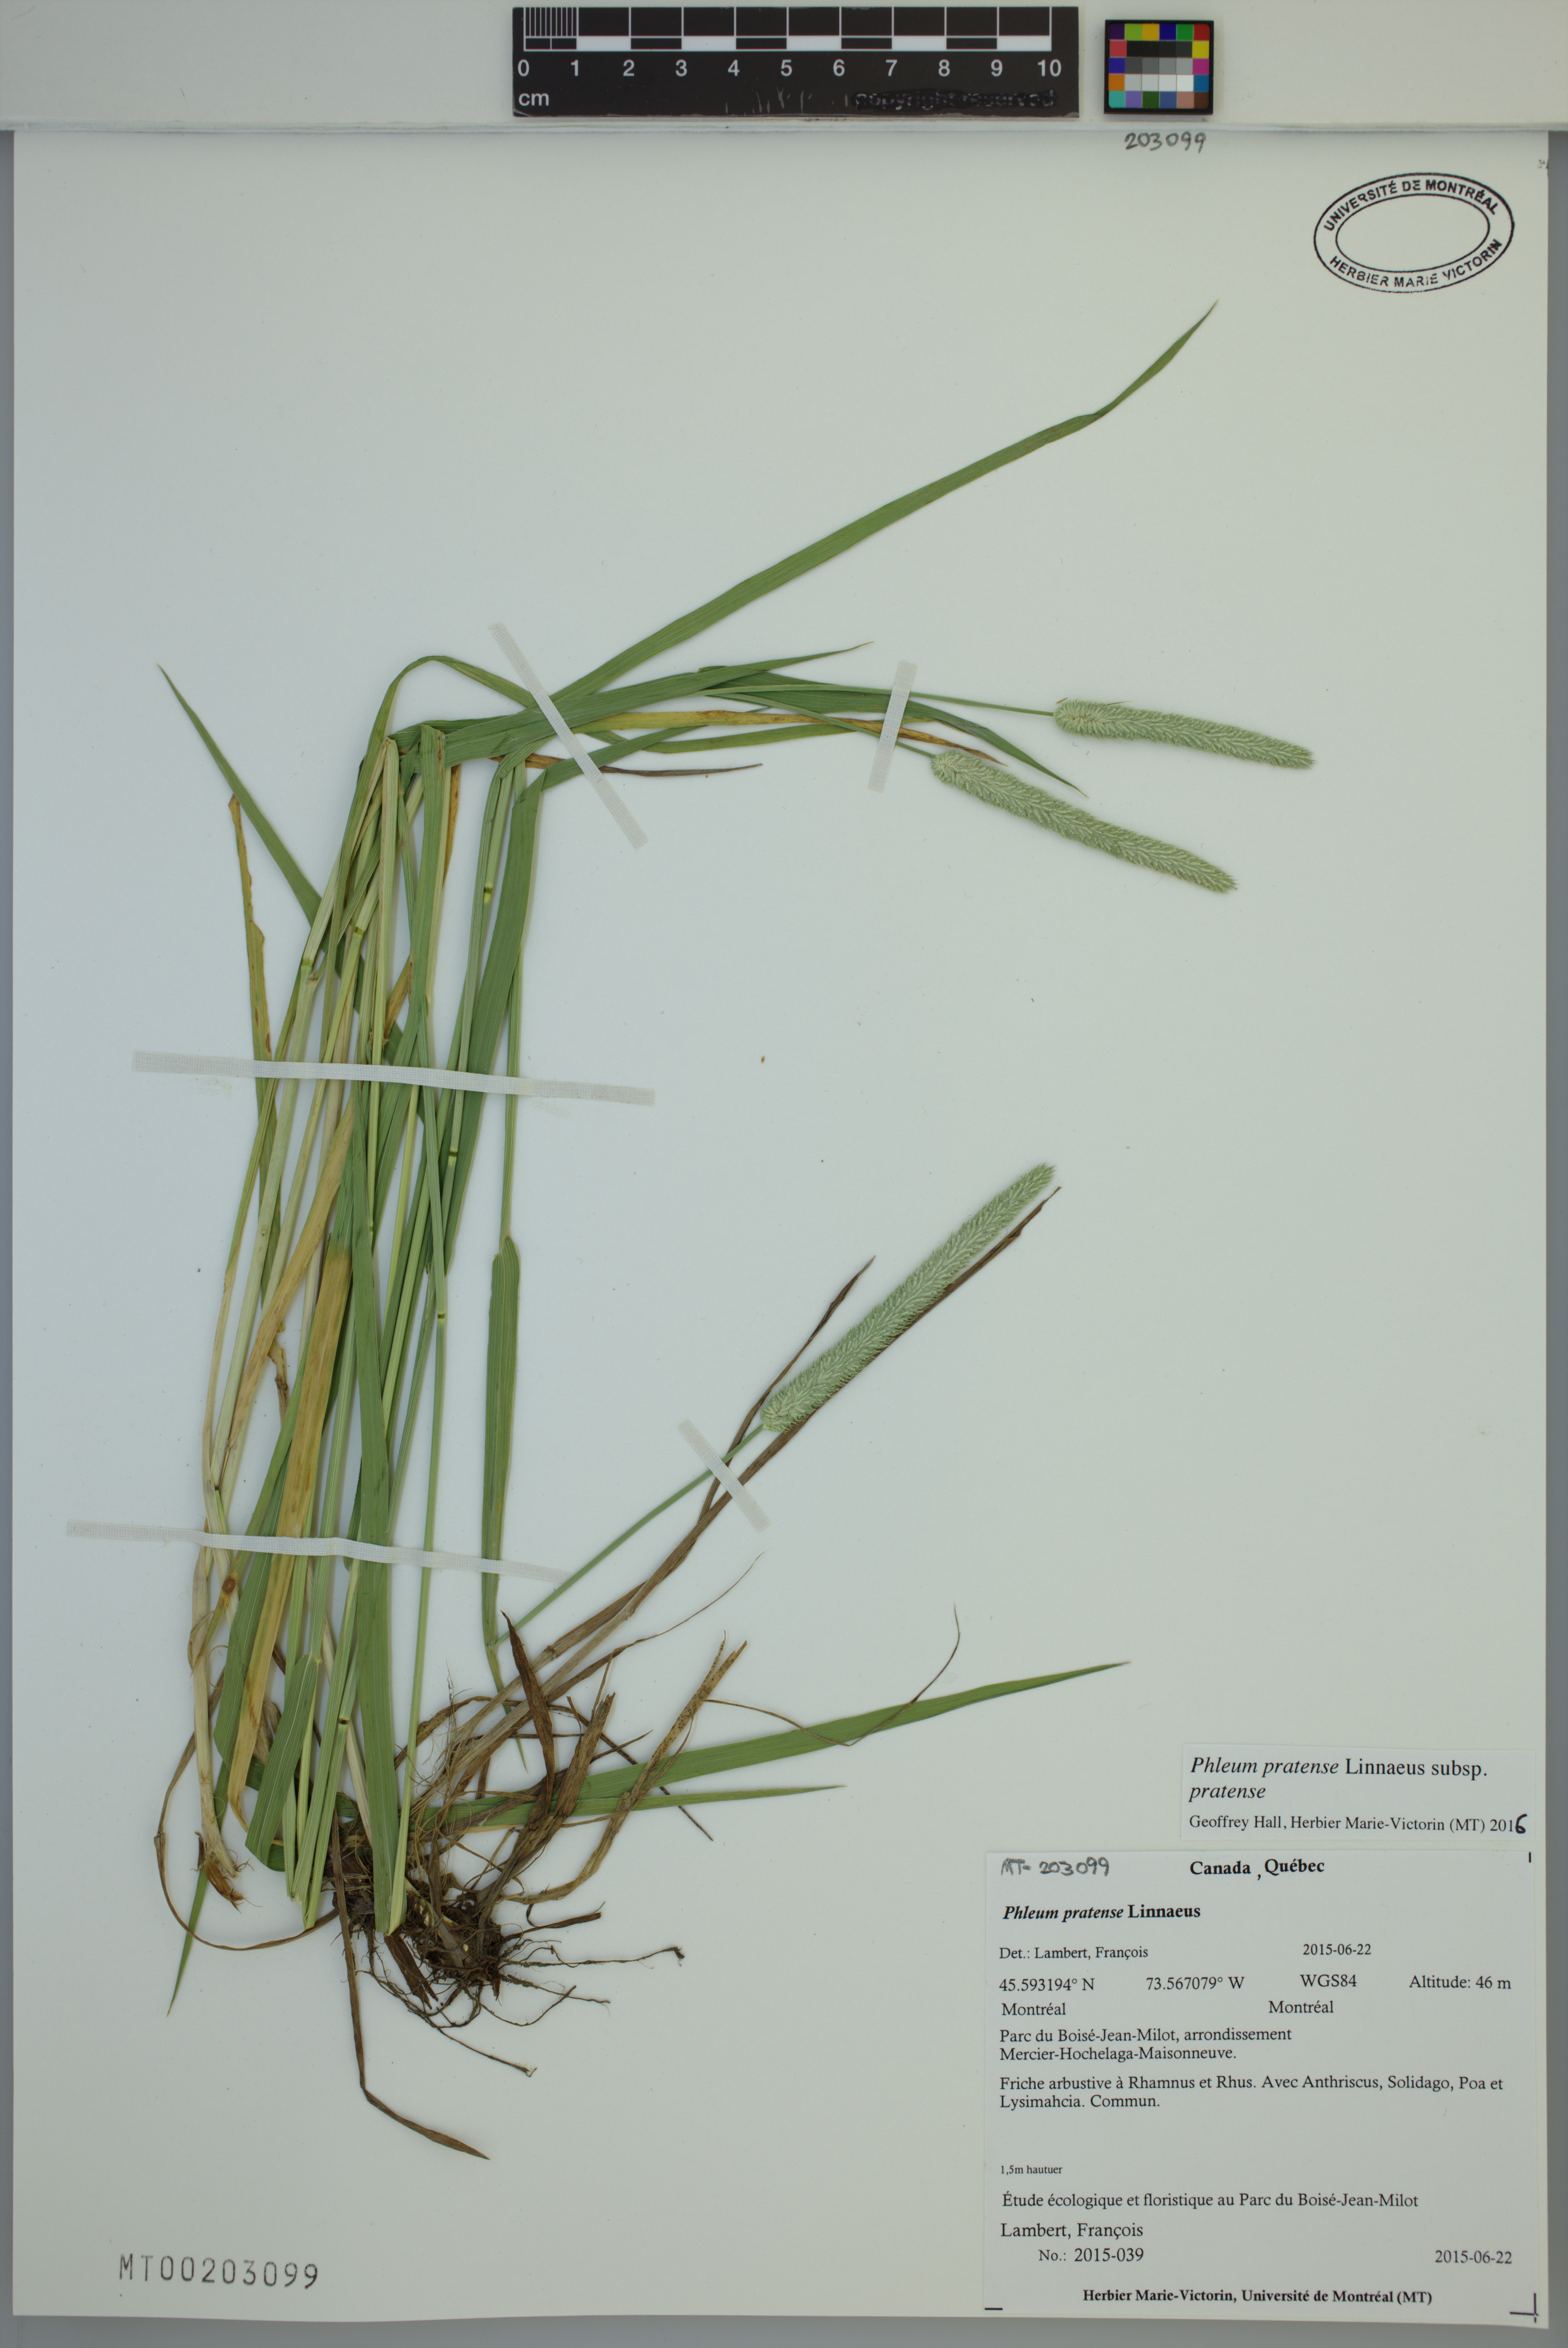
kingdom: Plantae
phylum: Tracheophyta
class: Liliopsida
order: Poales
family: Poaceae
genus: Phleum
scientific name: Phleum pratense
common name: Timothy grass
